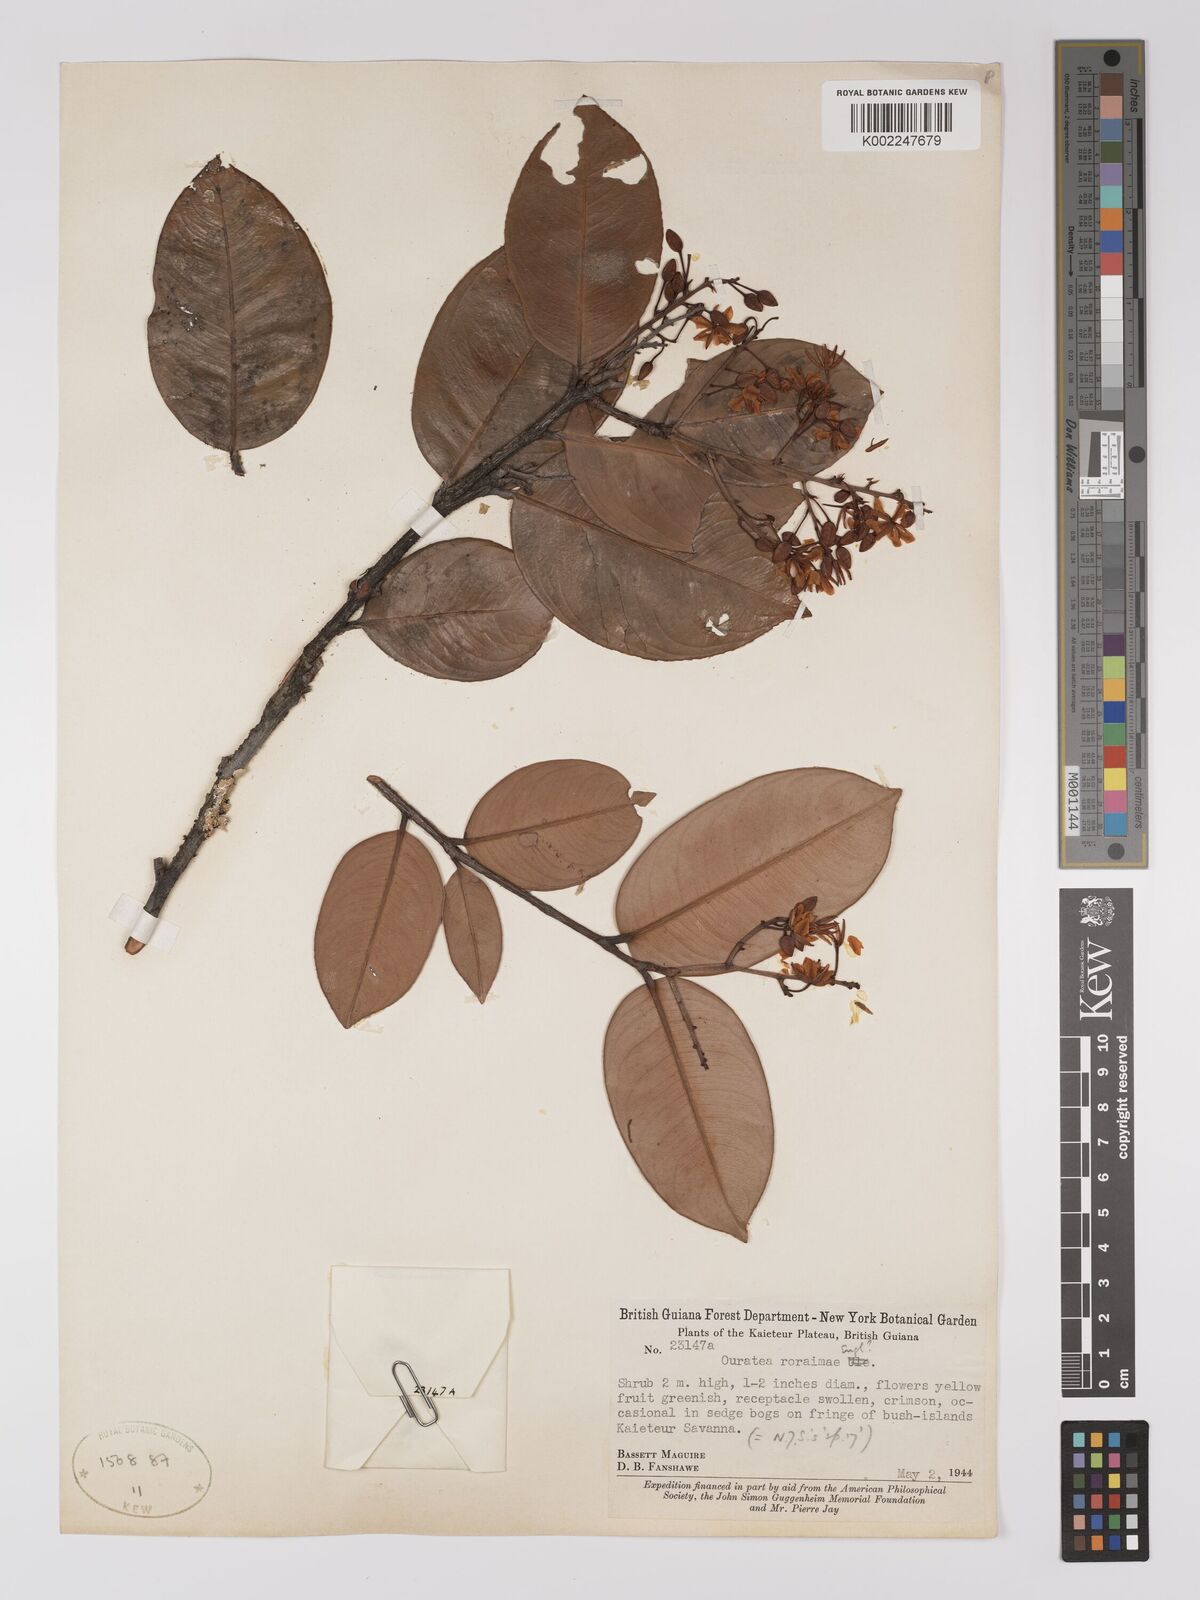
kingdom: Plantae
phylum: Tracheophyta
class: Magnoliopsida
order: Malpighiales
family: Ochnaceae
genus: Ouratea
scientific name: Ouratea roraimae
